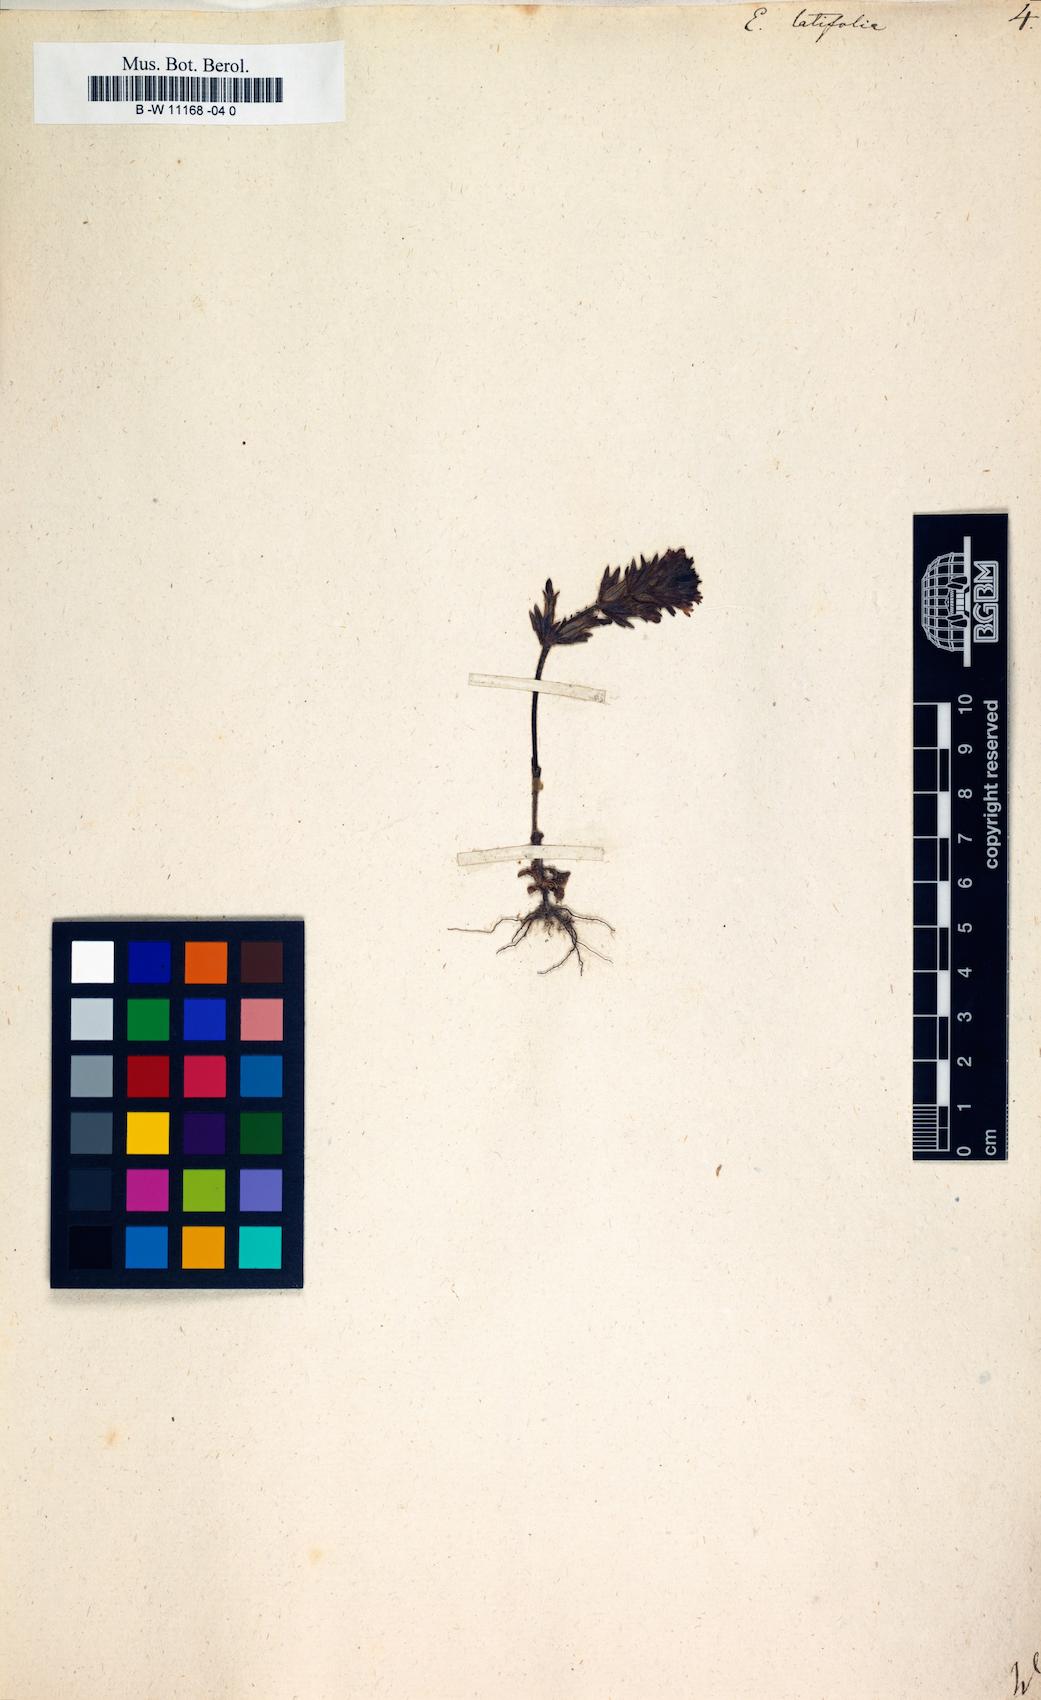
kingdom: Plantae
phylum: Tracheophyta
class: Magnoliopsida
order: Lamiales
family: Orobanchaceae
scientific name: Orobanchaceae
